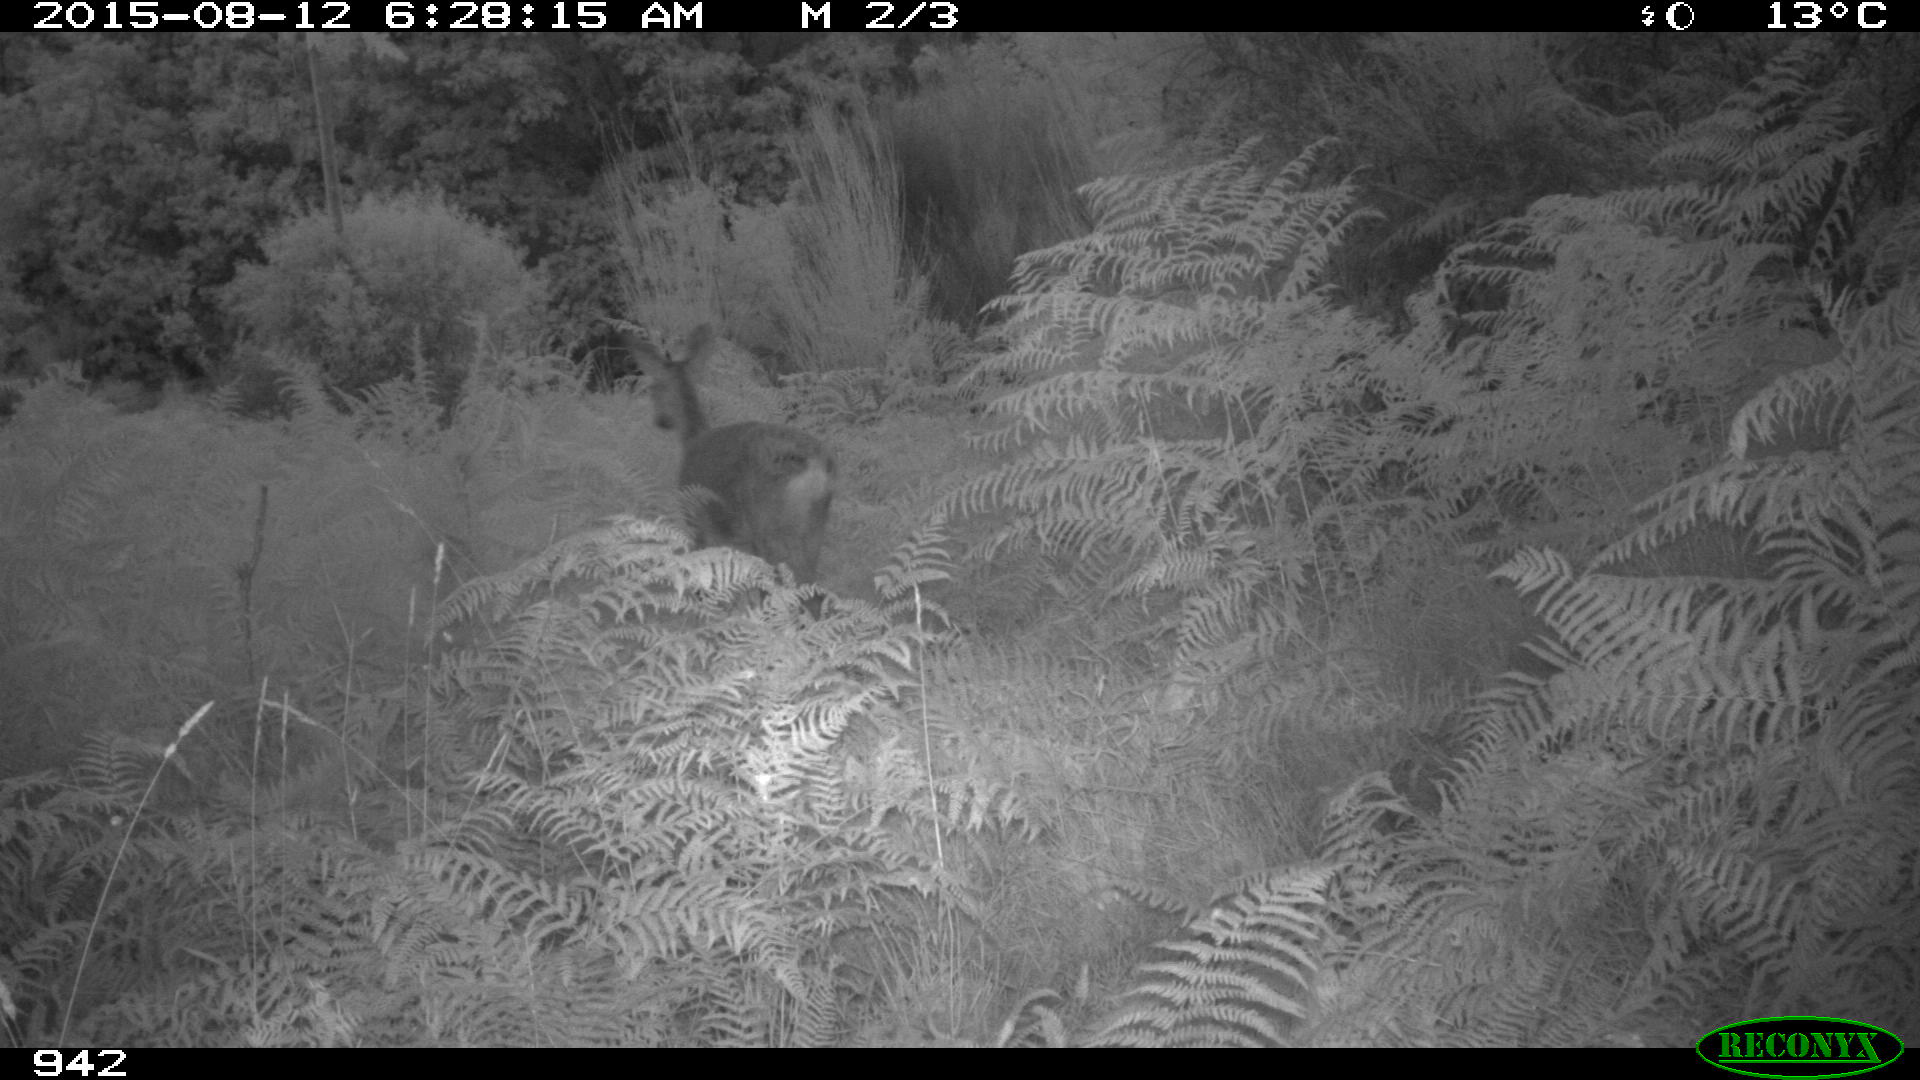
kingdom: Animalia
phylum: Chordata
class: Mammalia
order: Artiodactyla
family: Cervidae
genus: Capreolus
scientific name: Capreolus capreolus
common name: Western roe deer
